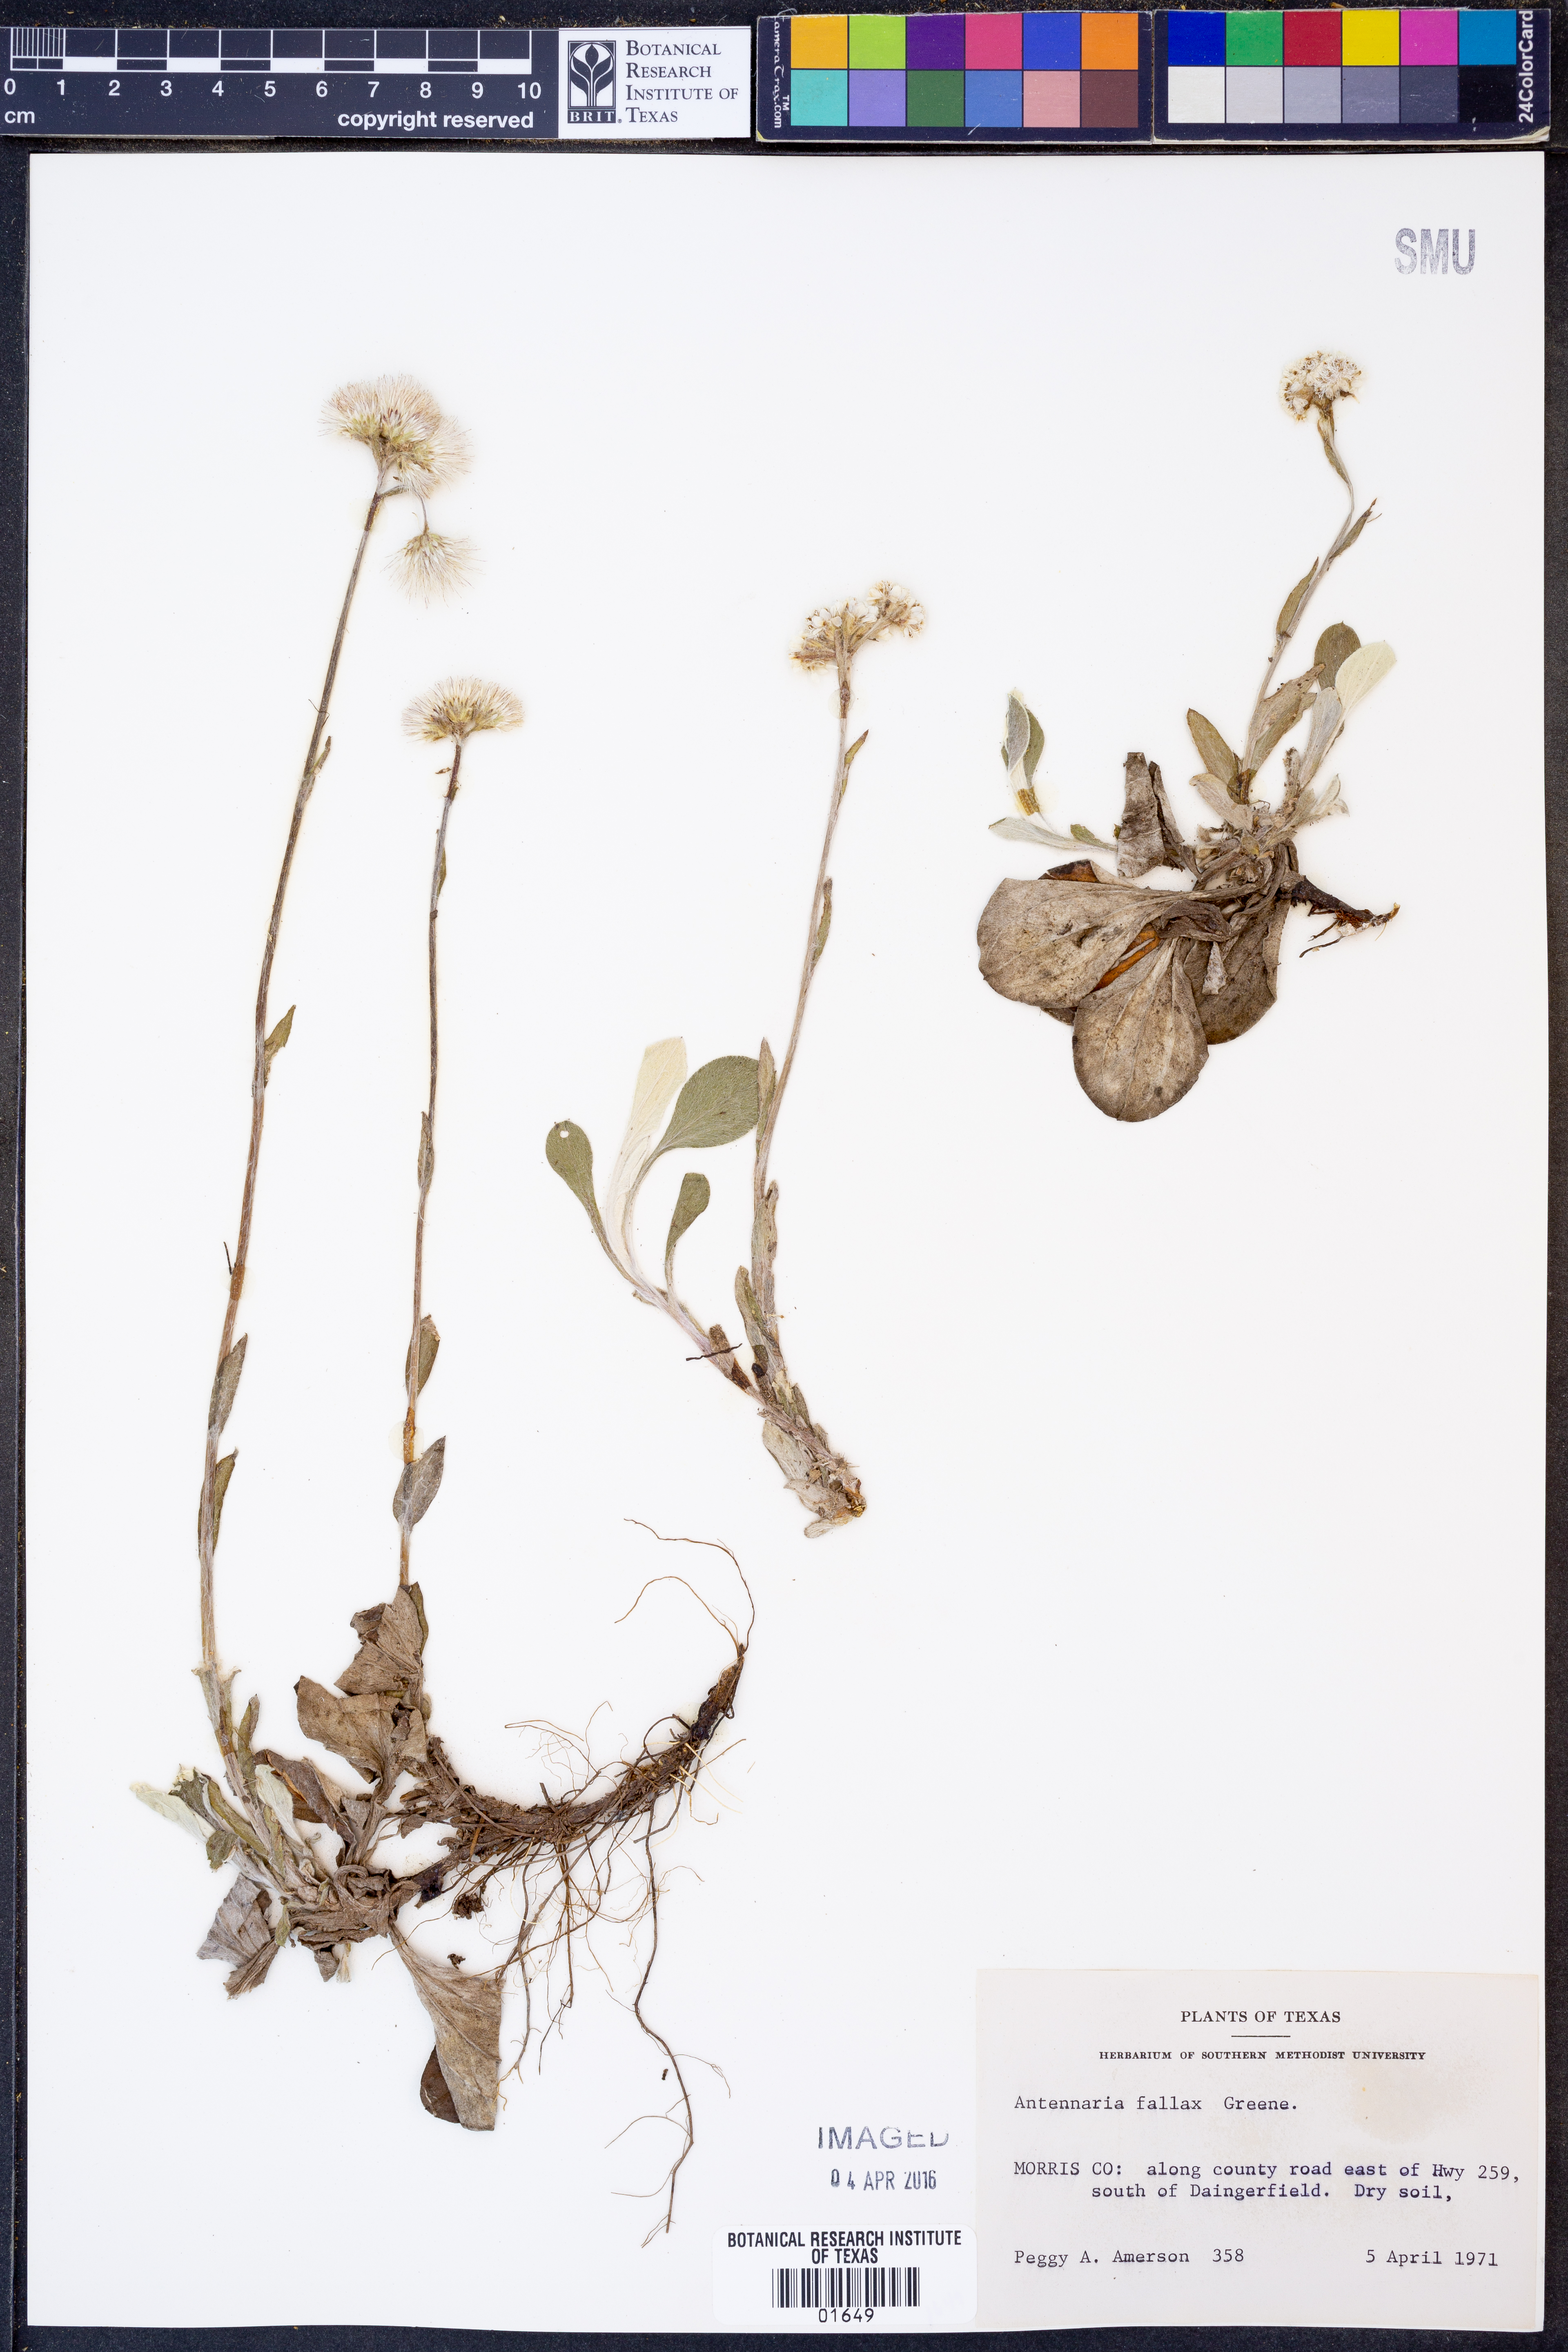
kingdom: Plantae
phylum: Tracheophyta
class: Magnoliopsida
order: Asterales
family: Asteraceae
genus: Antennaria
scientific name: Antennaria parlinii
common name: Parlin's pussytoes
